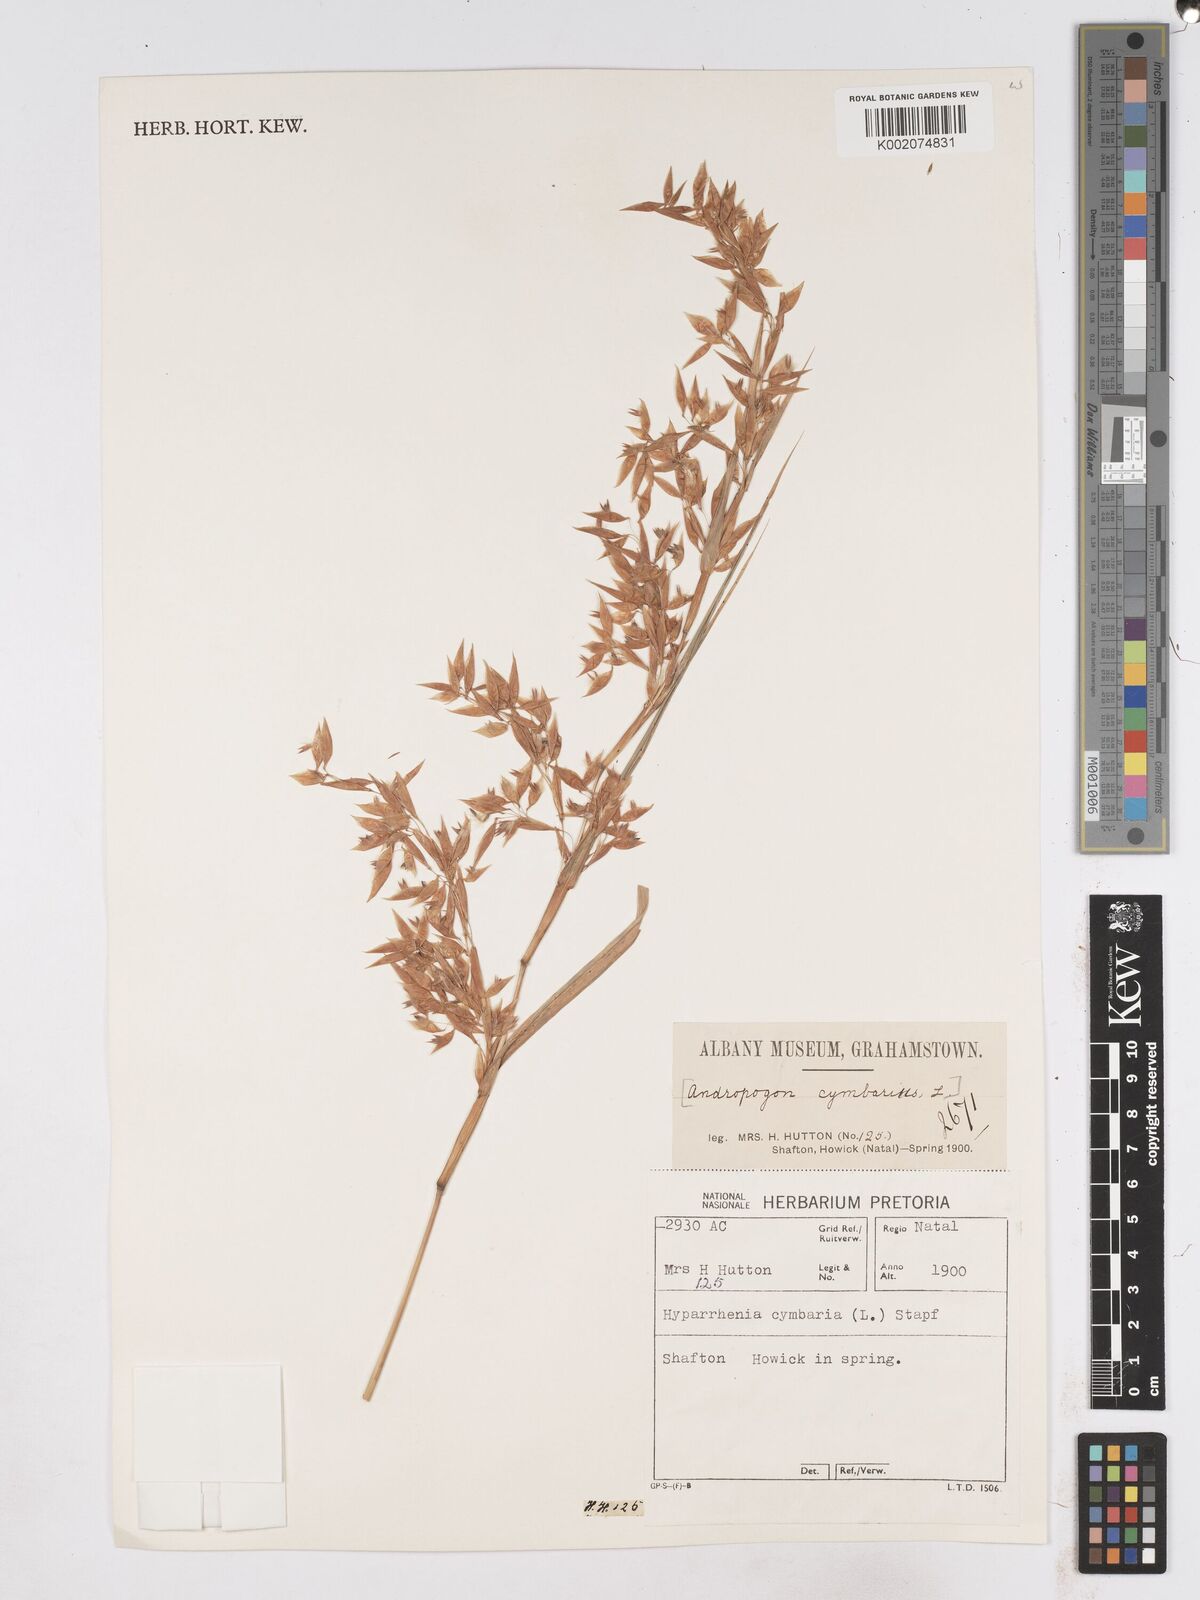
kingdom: Plantae
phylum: Tracheophyta
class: Liliopsida
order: Poales
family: Poaceae
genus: Hyparrhenia
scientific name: Hyparrhenia cymbaria
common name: Boat thatching grass
